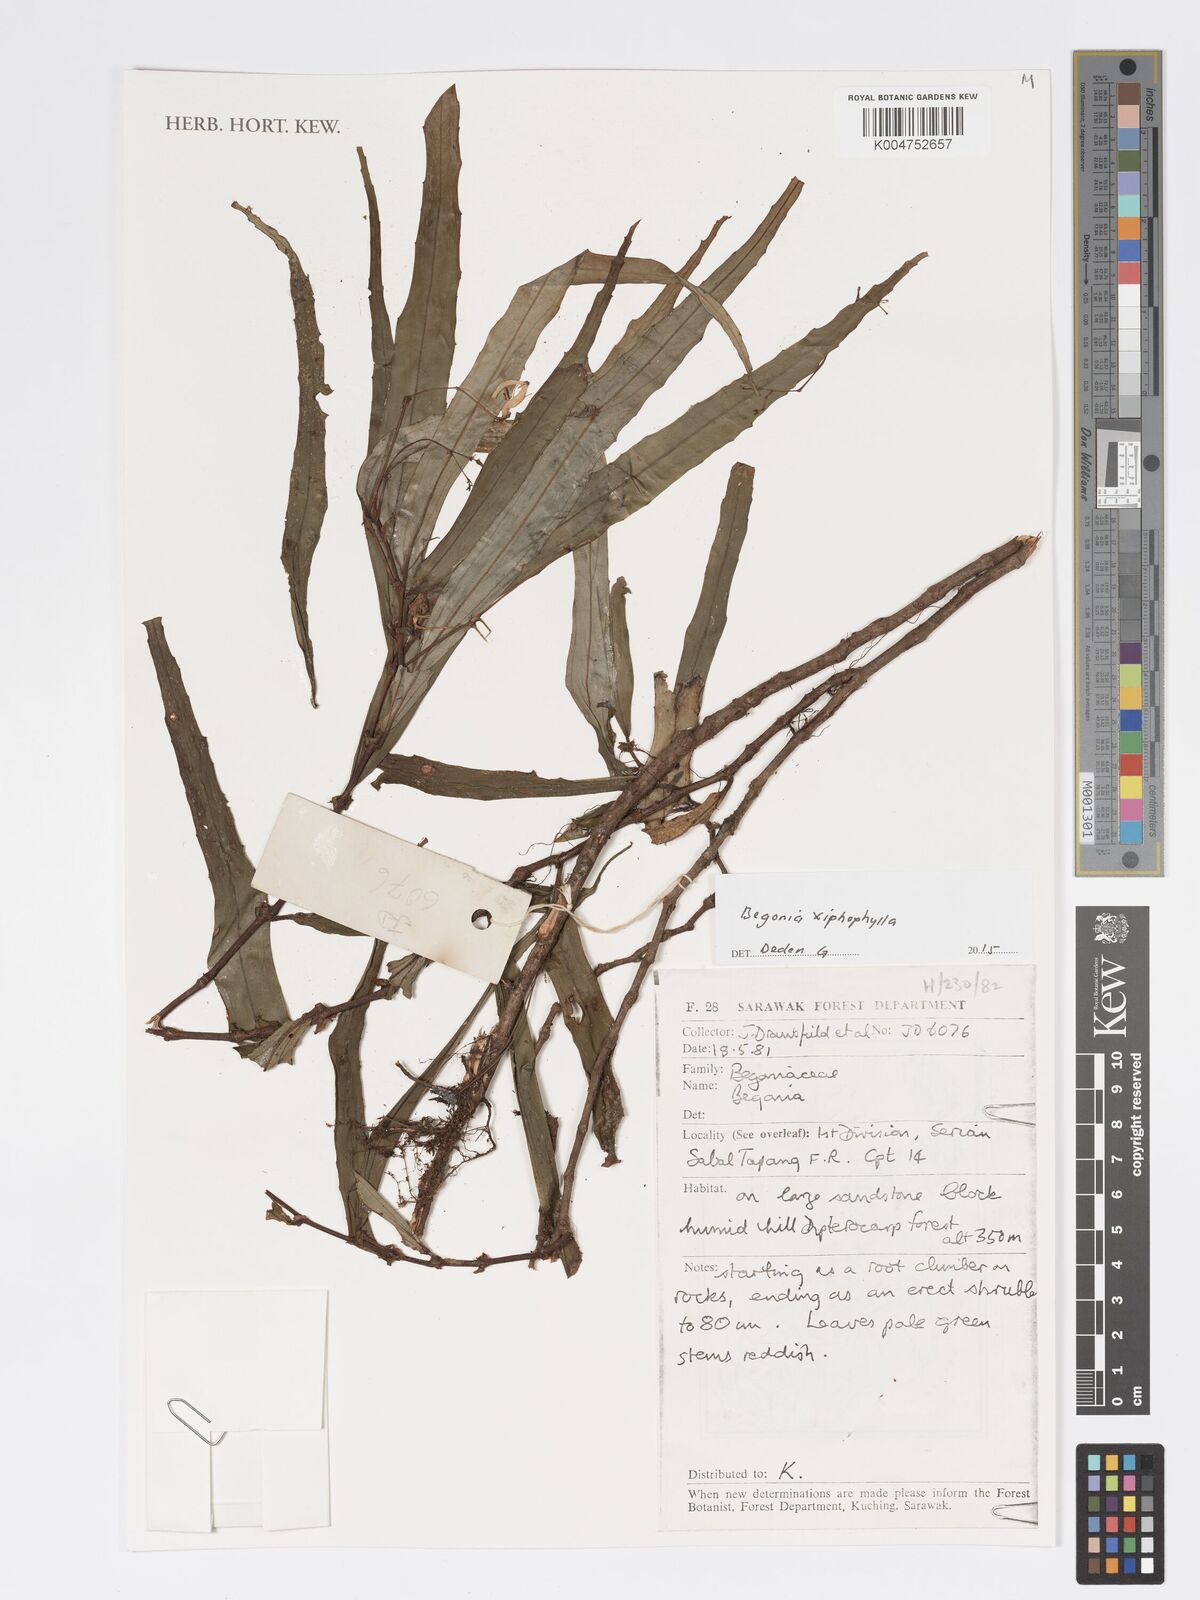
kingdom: Plantae
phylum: Tracheophyta
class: Magnoliopsida
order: Cucurbitales
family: Begoniaceae
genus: Begonia
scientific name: Begonia xiphophylla
